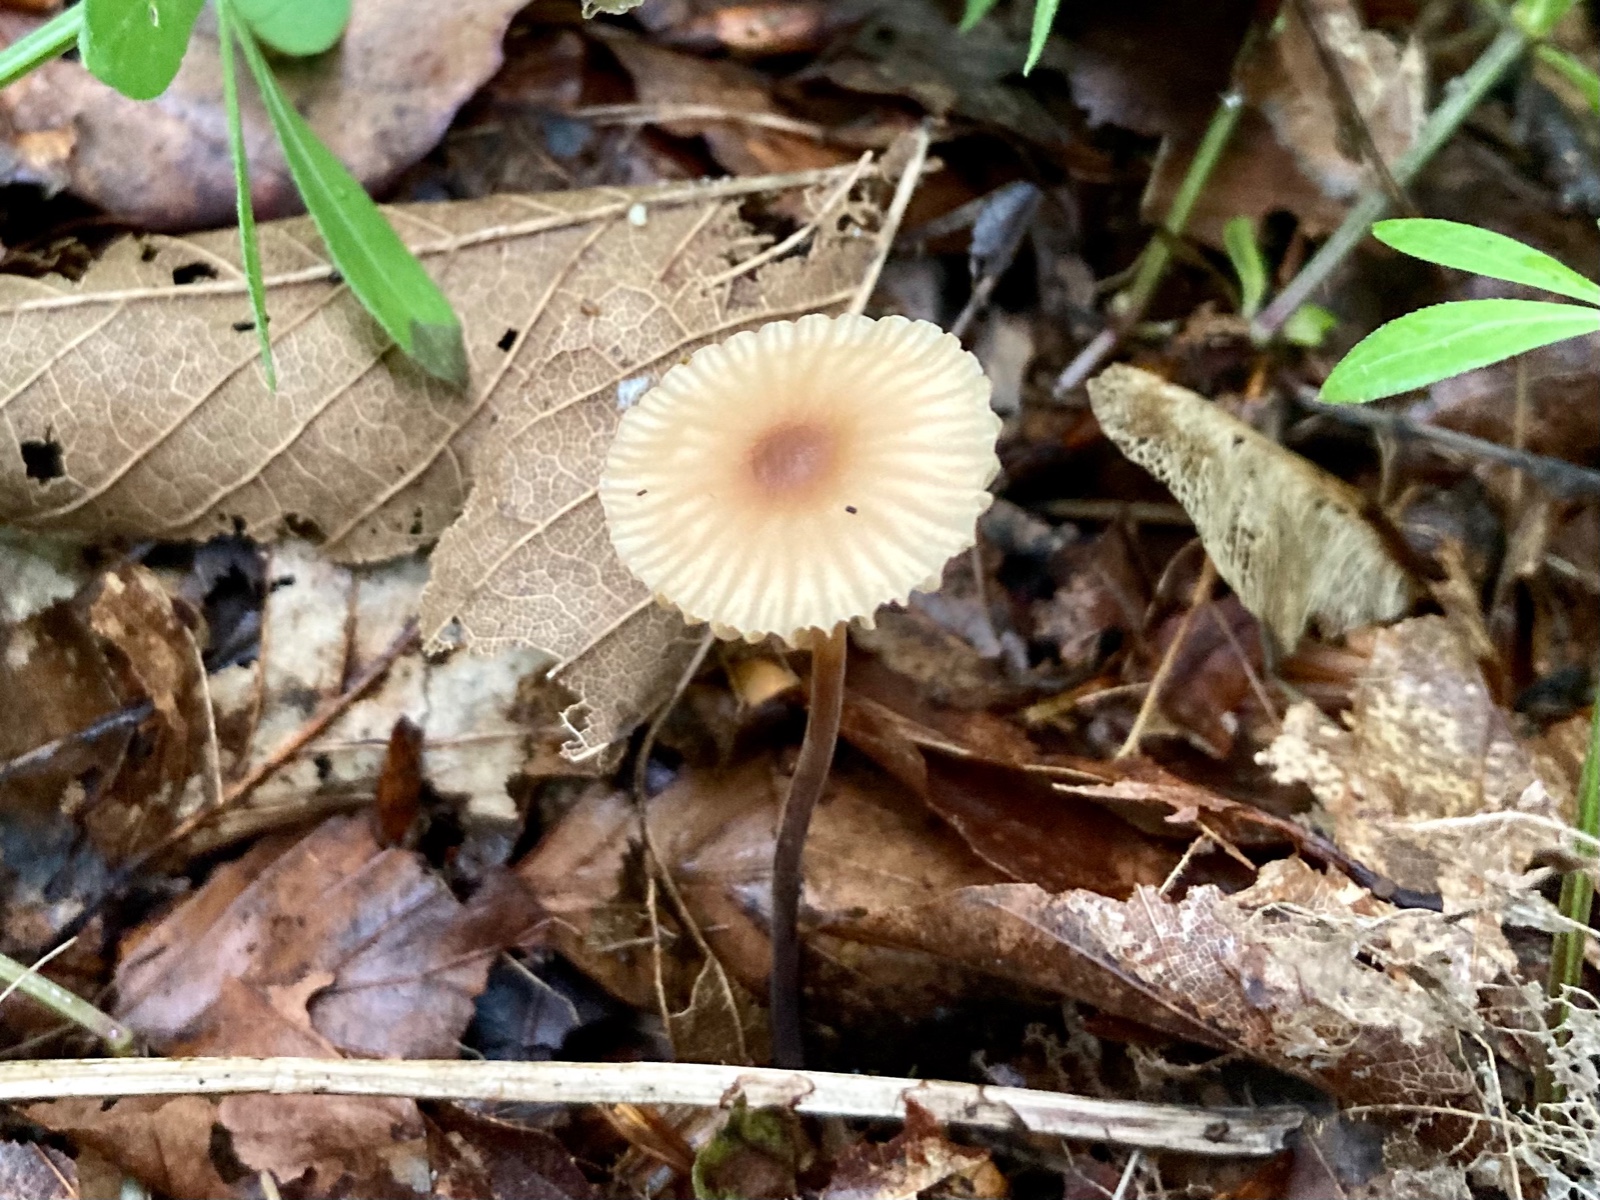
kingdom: Fungi
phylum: Basidiomycota
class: Agaricomycetes
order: Agaricales
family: Marasmiaceae
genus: Marasmius
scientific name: Marasmius torquescens
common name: filtfodet bruskhat
